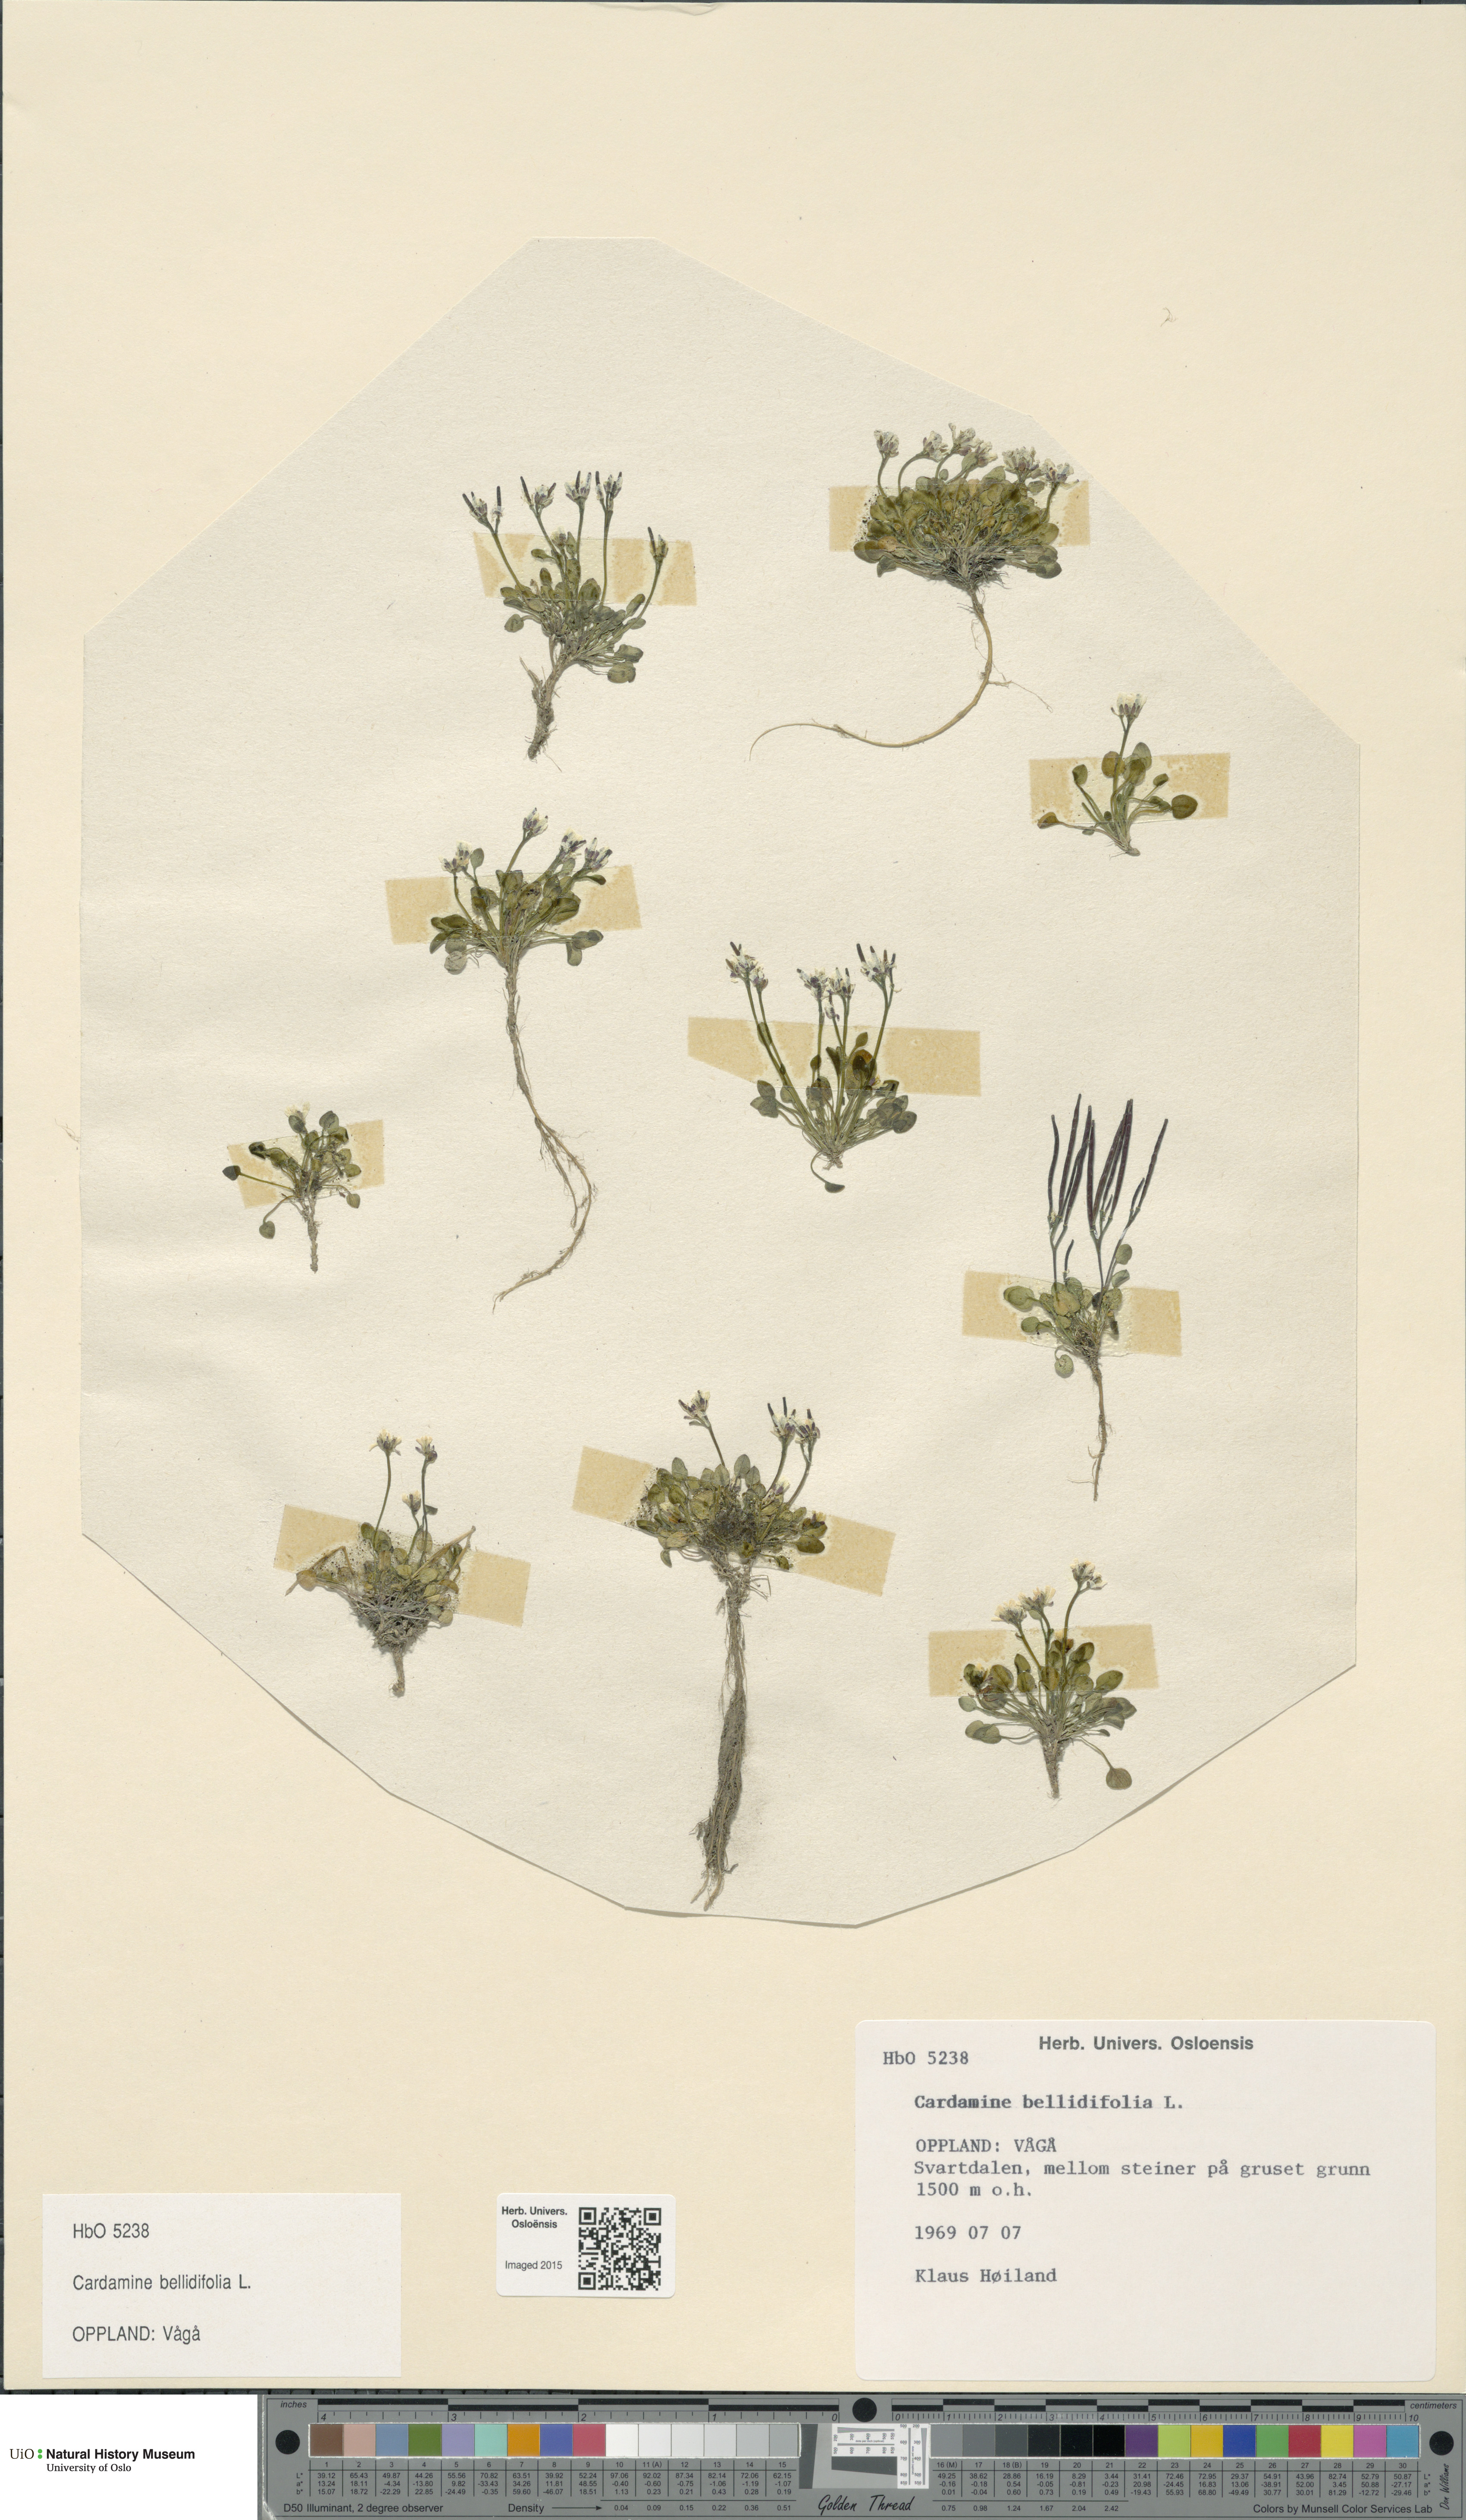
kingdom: Plantae
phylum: Tracheophyta
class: Magnoliopsida
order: Brassicales
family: Brassicaceae
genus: Cardamine
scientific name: Cardamine bellidifolia
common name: Alpine bittercress
